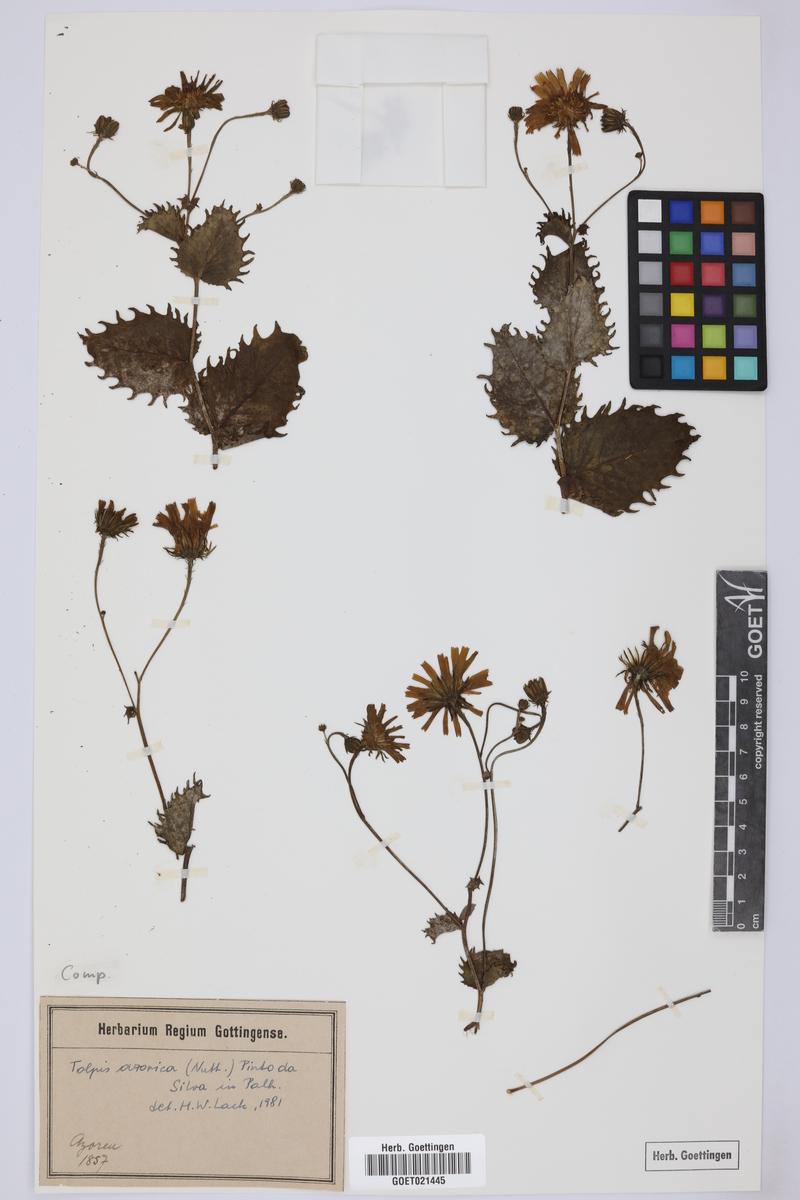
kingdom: Plantae
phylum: Tracheophyta
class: Magnoliopsida
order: Asterales
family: Asteraceae
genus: Tolpis
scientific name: Tolpis azorica
